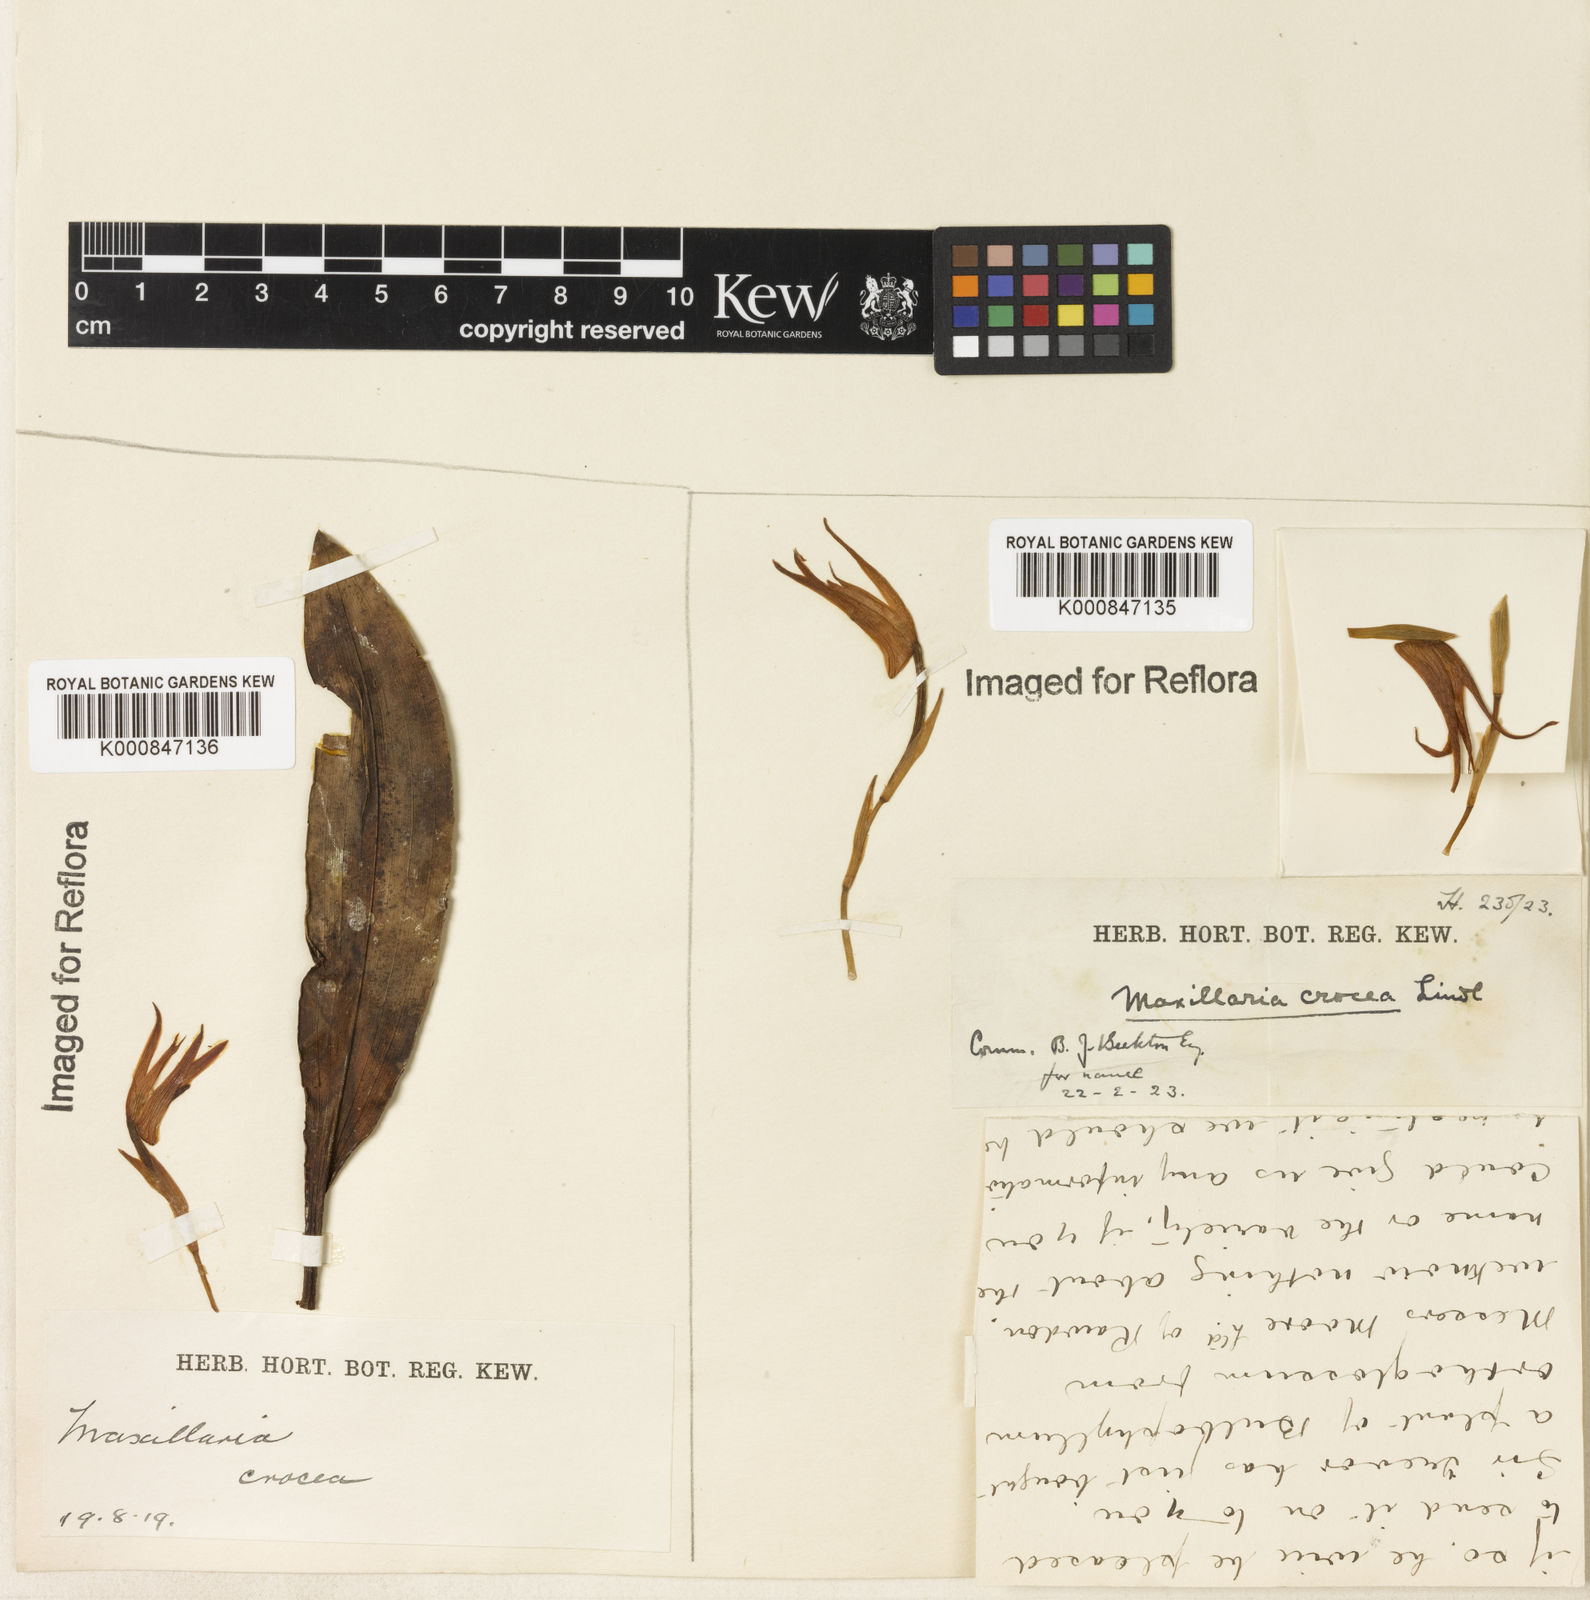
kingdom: Plantae
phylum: Tracheophyta
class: Liliopsida
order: Asparagales
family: Orchidaceae
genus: Maxillaria
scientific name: Maxillaria crocea
